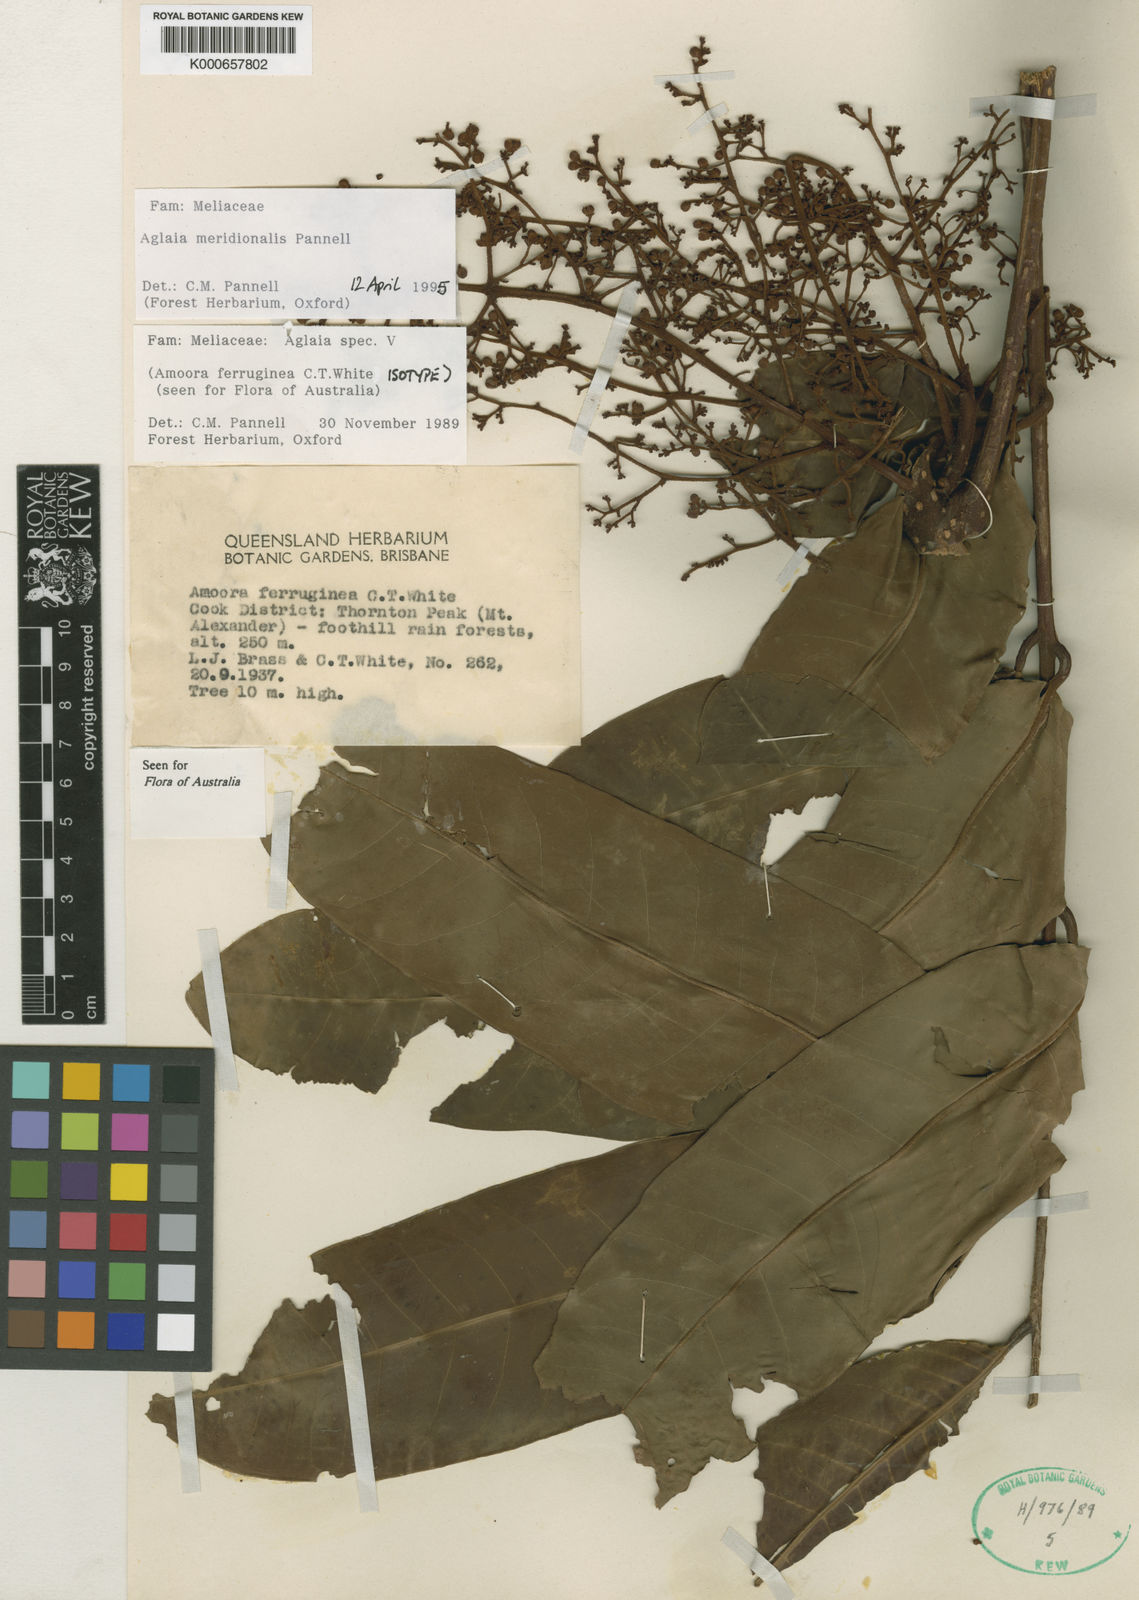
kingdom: Plantae
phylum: Tracheophyta
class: Magnoliopsida
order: Sapindales
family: Meliaceae
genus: Aglaia
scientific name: Aglaia meridionalis
